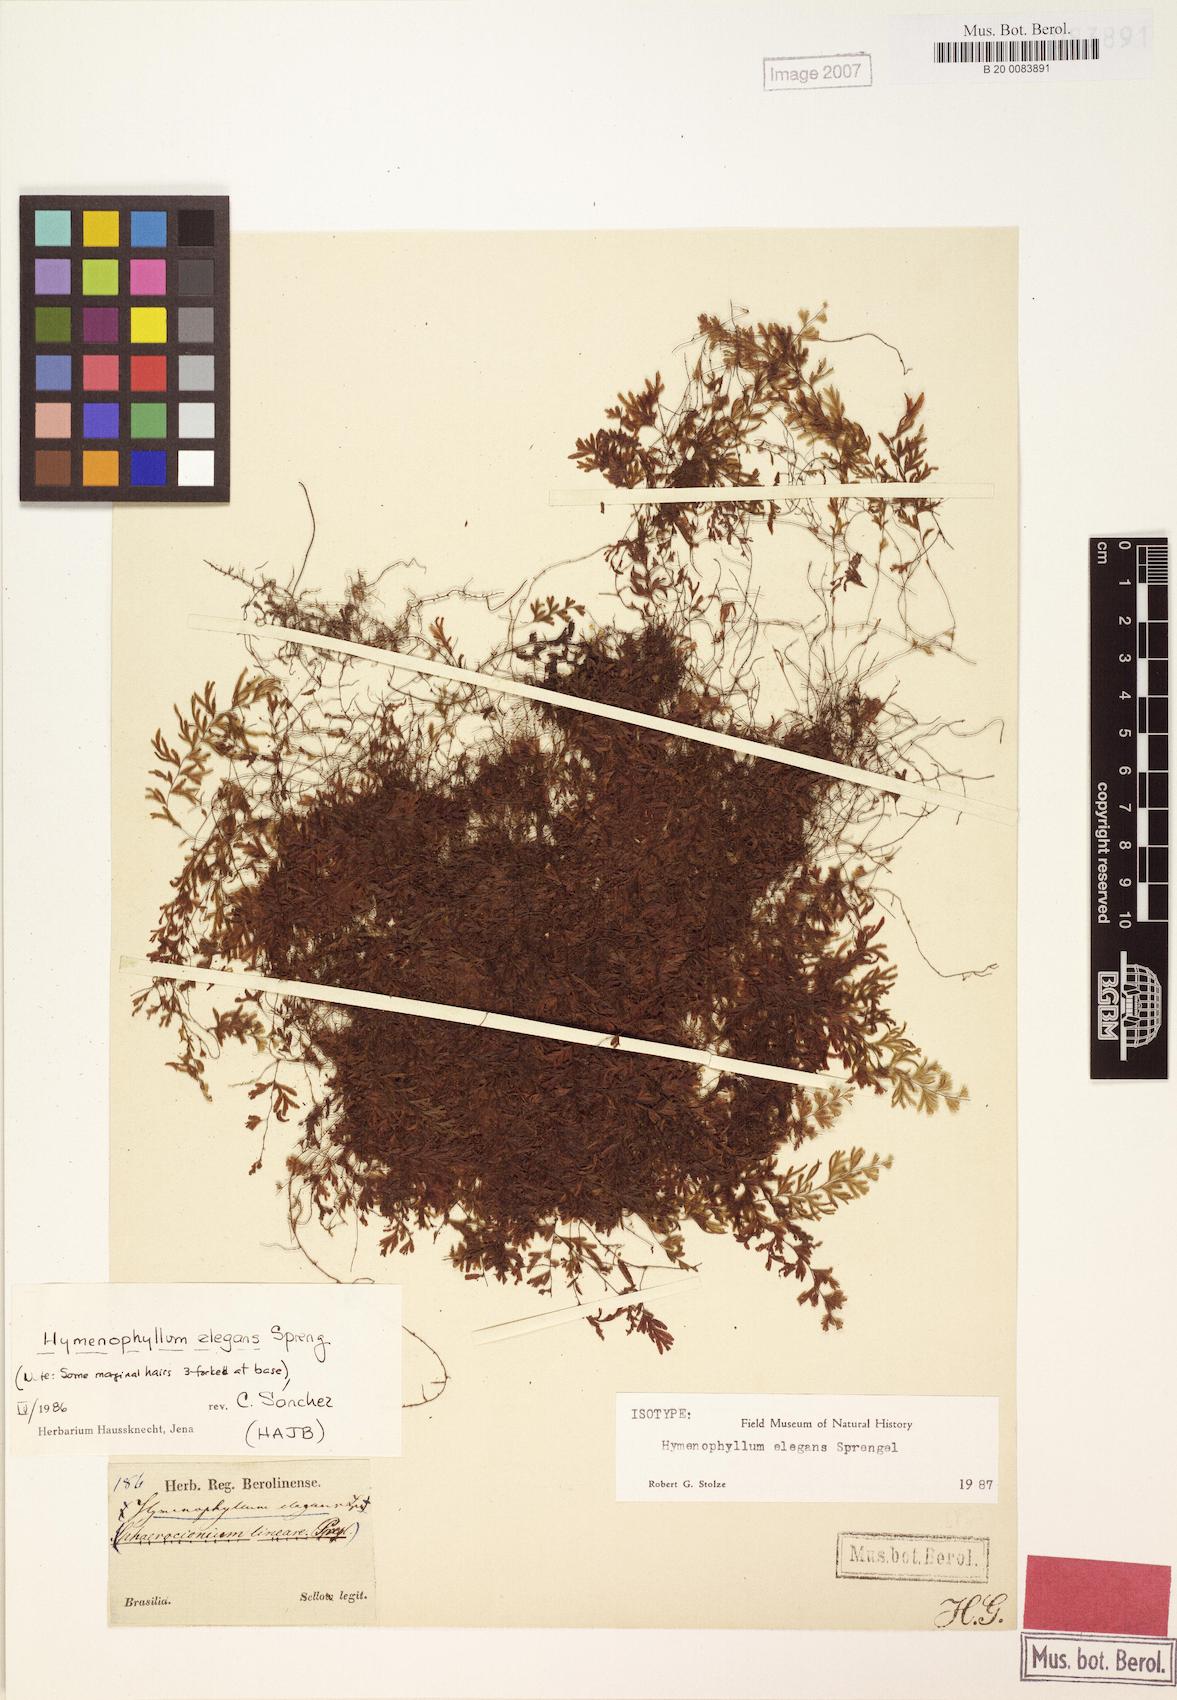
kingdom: Plantae
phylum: Tracheophyta
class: Polypodiopsida
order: Hymenophyllales
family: Hymenophyllaceae
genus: Hymenophyllum
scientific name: Hymenophyllum elegans
